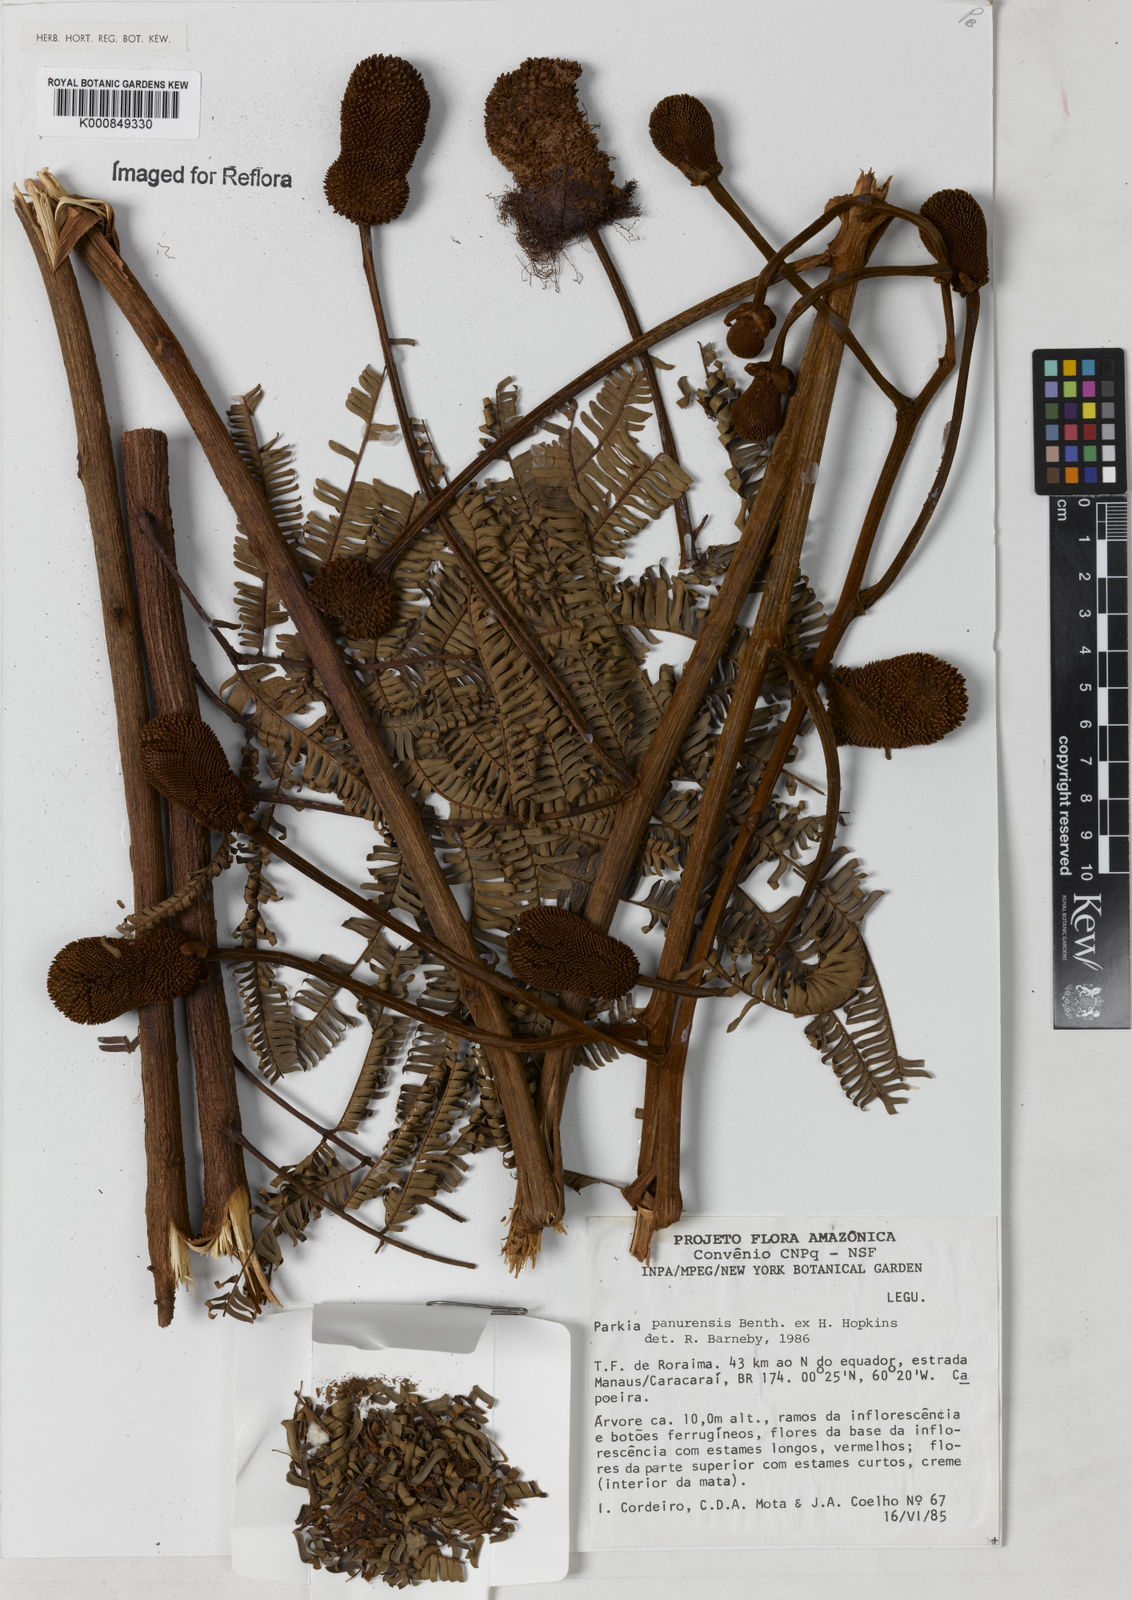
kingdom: Plantae
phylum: Tracheophyta
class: Magnoliopsida
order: Fabales
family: Fabaceae
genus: Parkia
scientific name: Parkia pectinata
